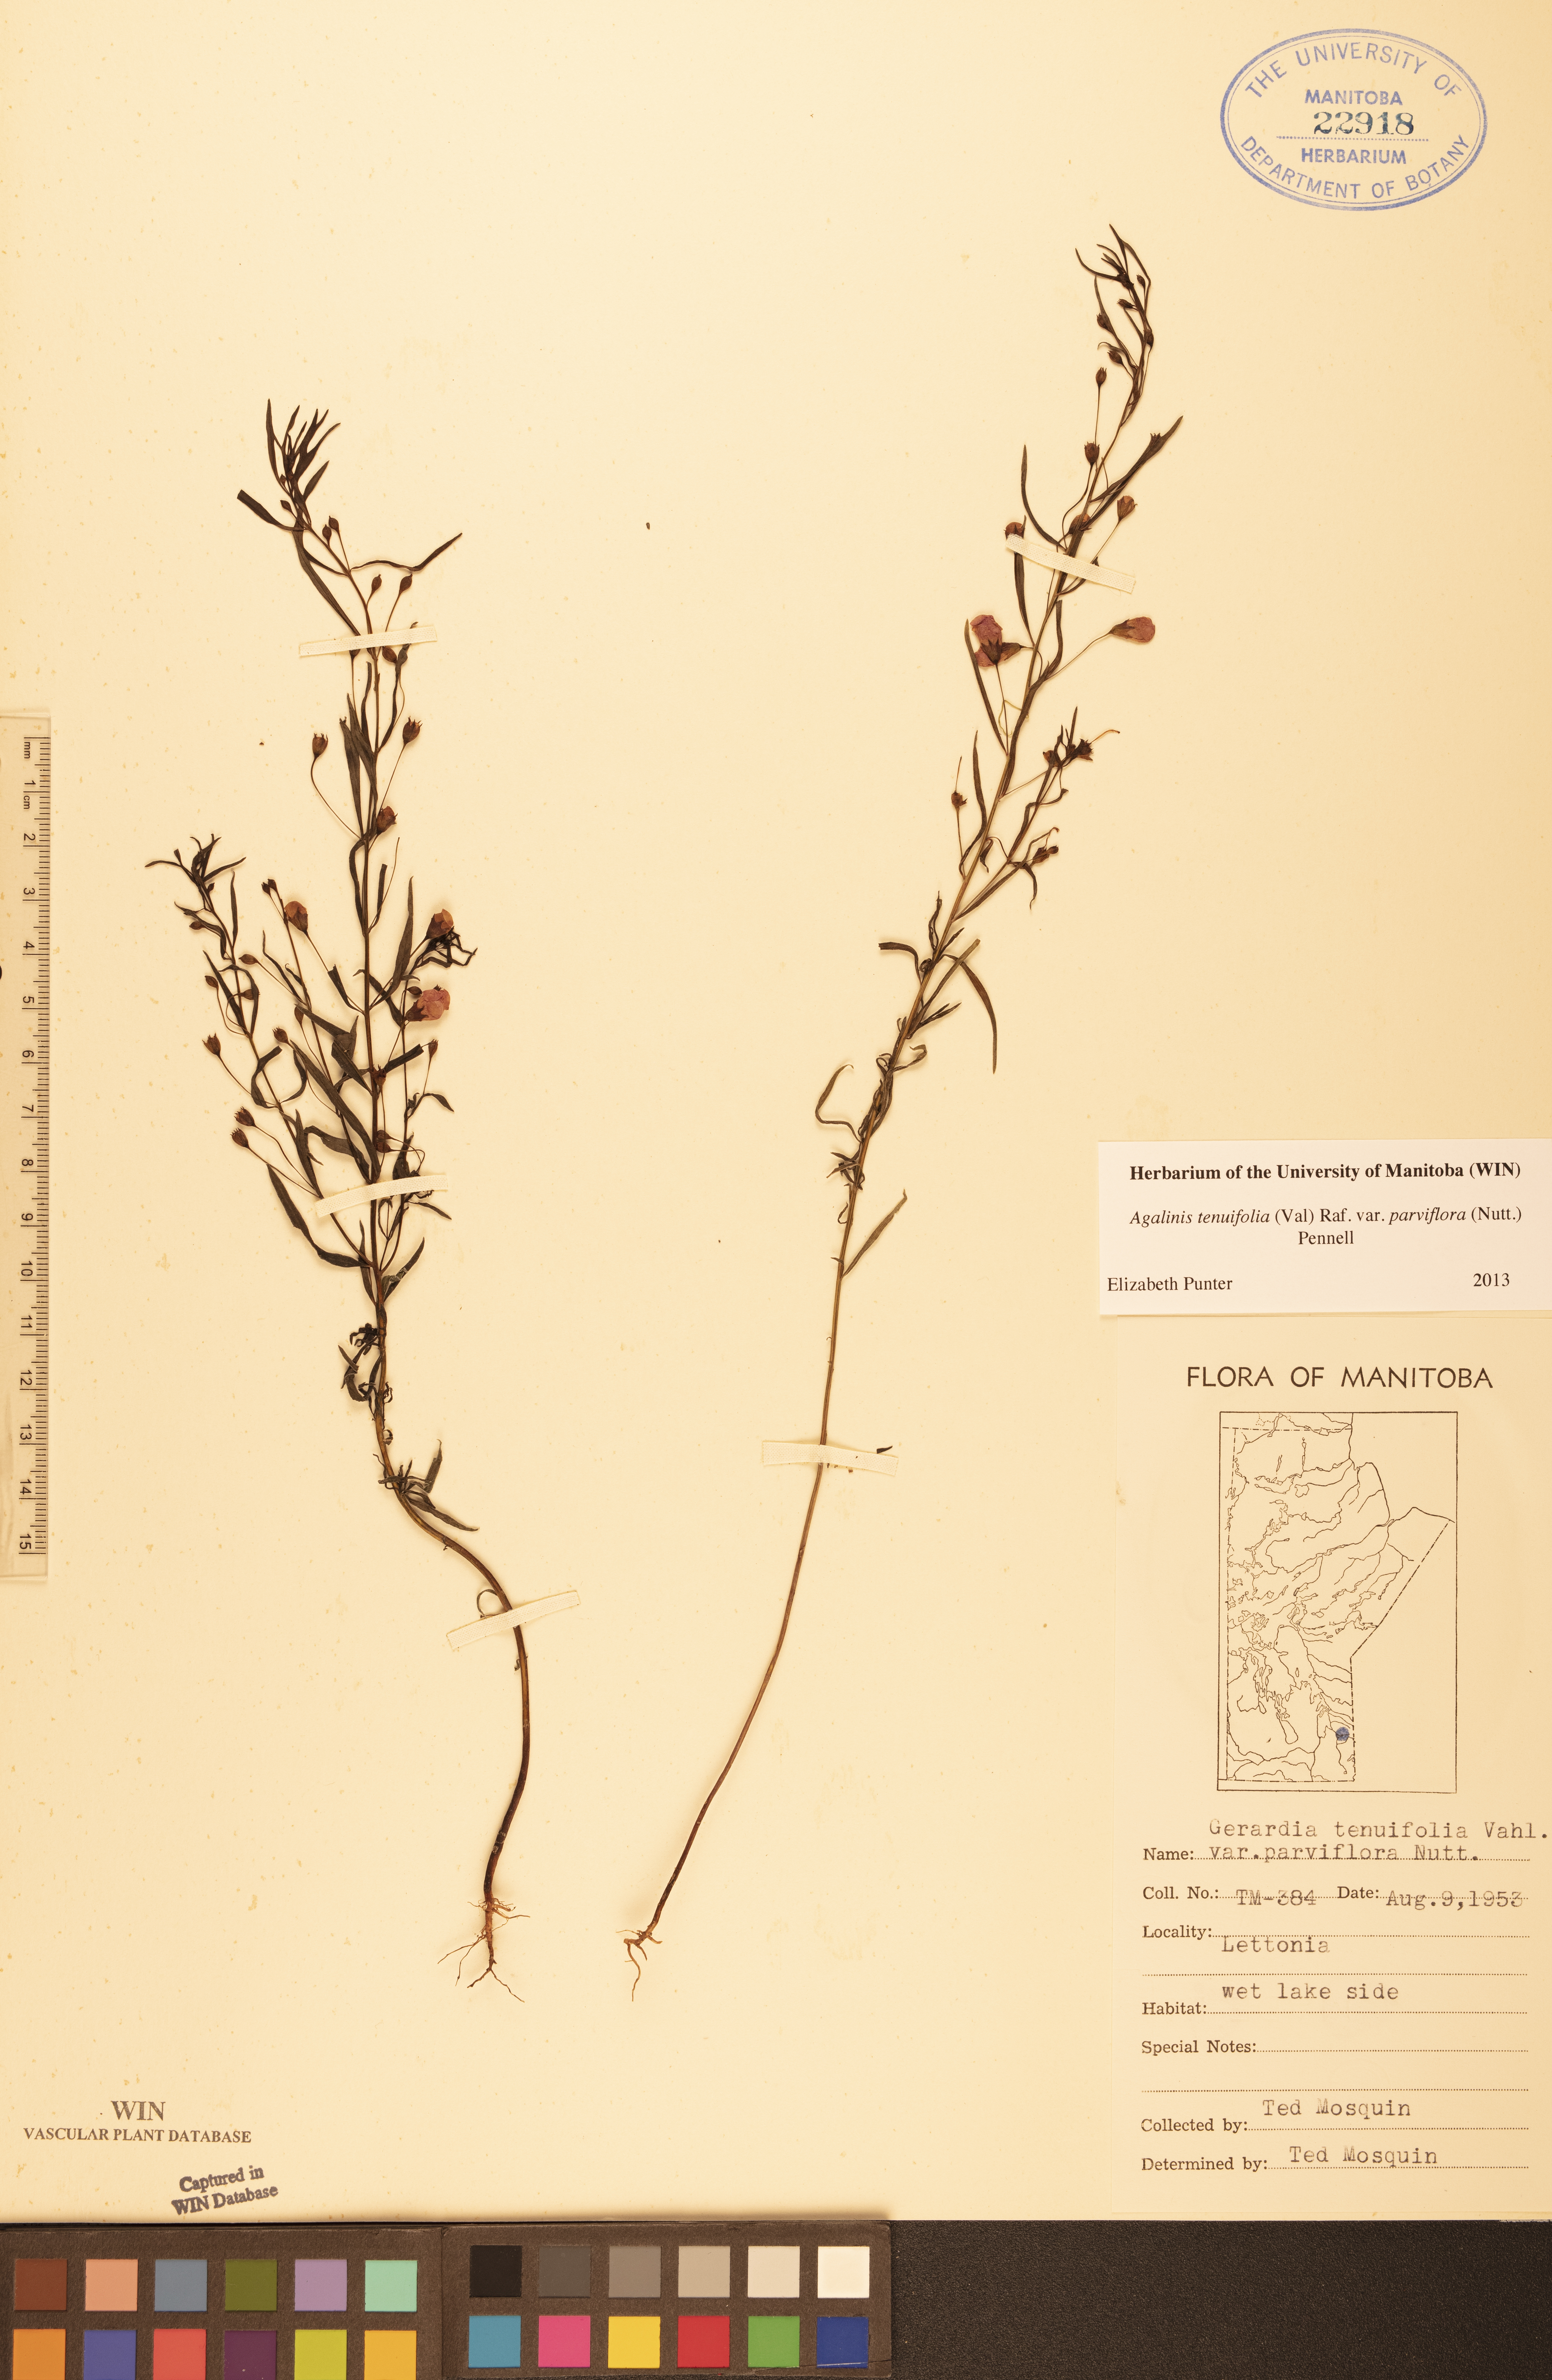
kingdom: Plantae
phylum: Tracheophyta
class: Magnoliopsida
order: Lamiales
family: Orobanchaceae
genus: Agalinis
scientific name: Agalinis tenuifolia
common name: Slender agalinis
